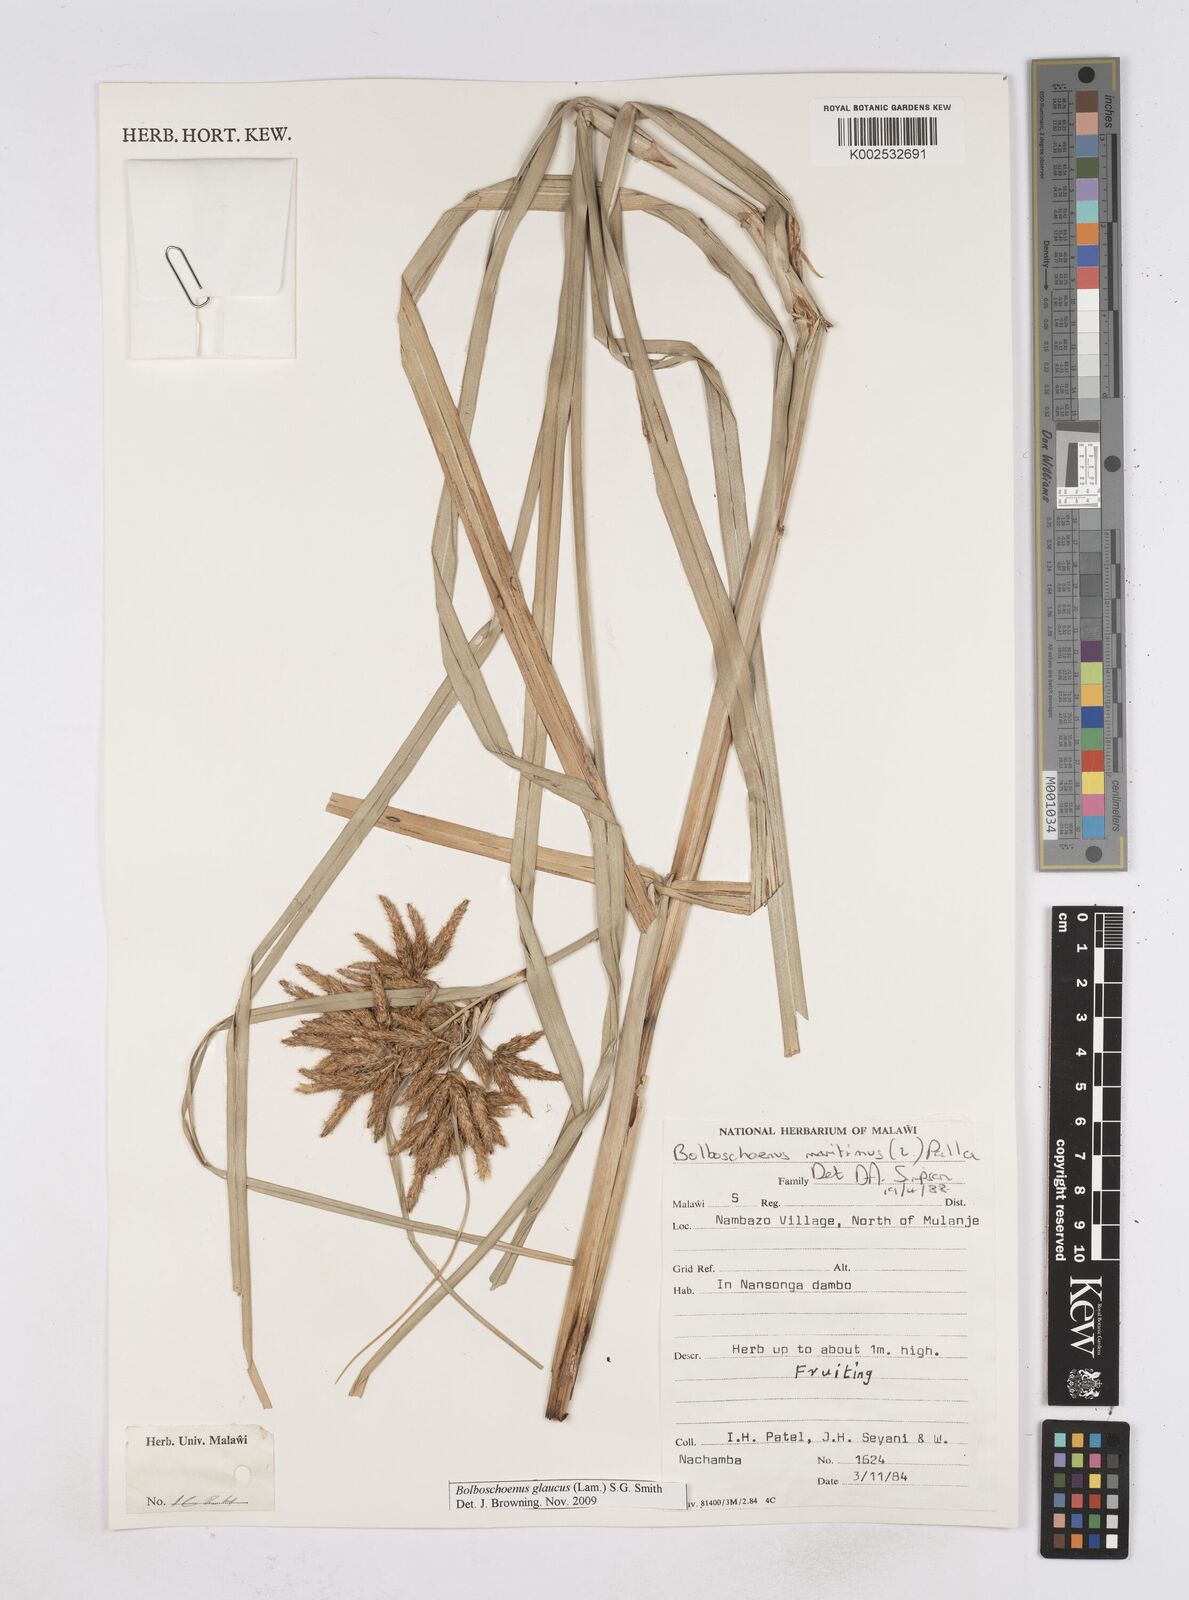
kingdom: Plantae
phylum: Tracheophyta
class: Liliopsida
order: Poales
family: Cyperaceae
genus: Bolboschoenus
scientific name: Bolboschoenus glaucus
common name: Tuberous bulrush
